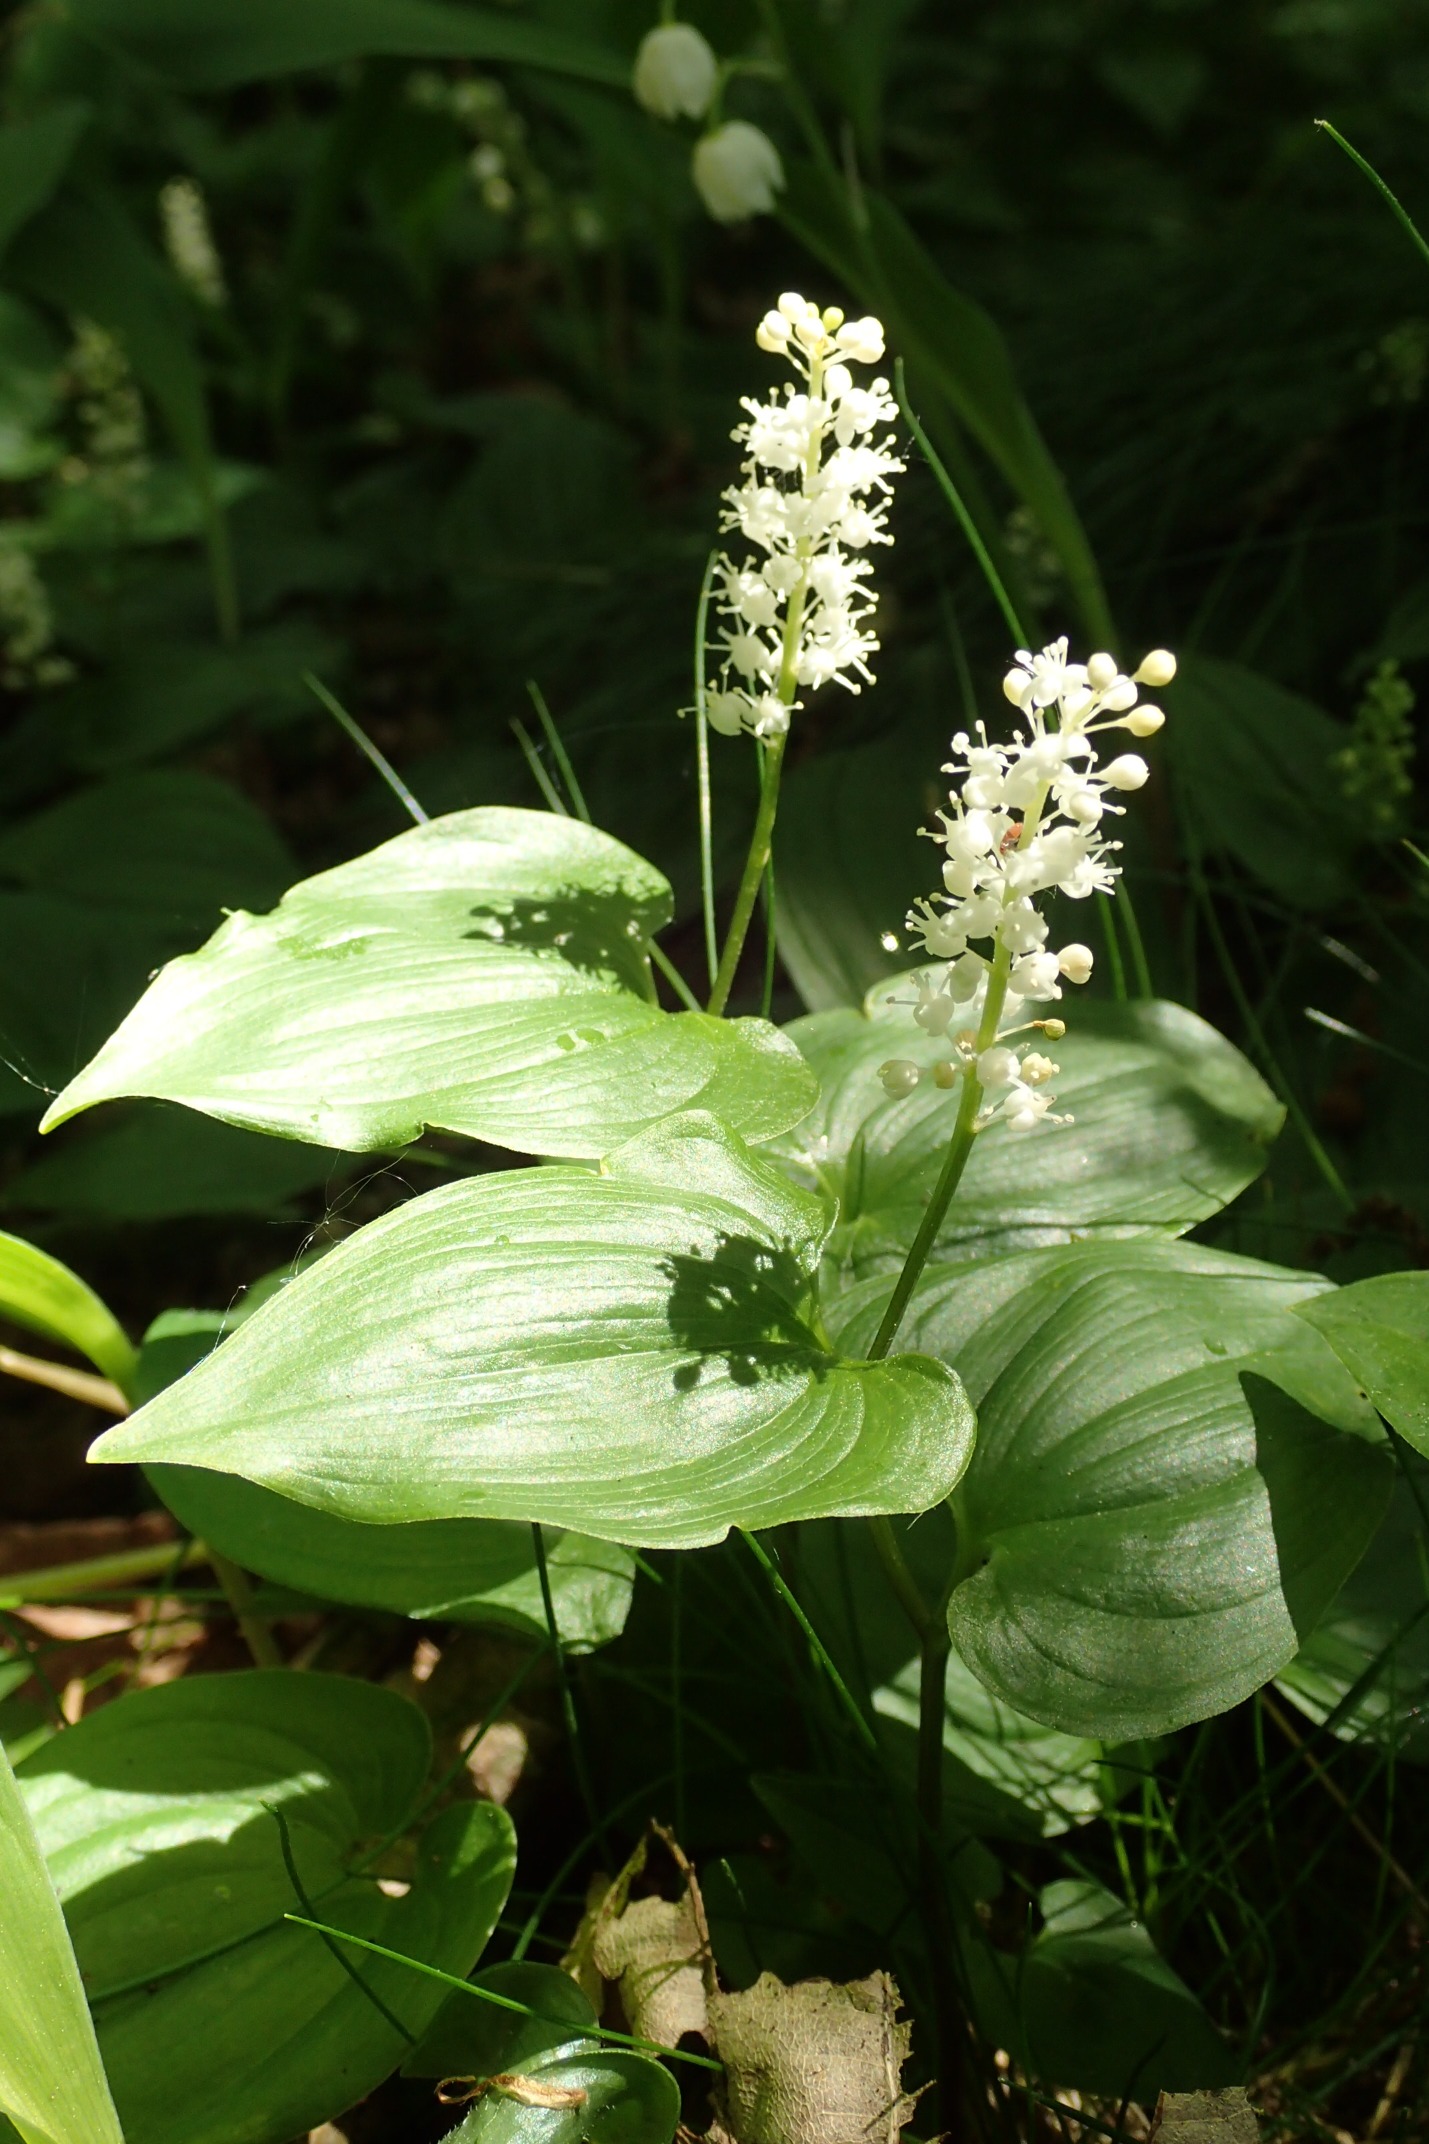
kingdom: Plantae
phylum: Tracheophyta
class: Liliopsida
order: Asparagales
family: Asparagaceae
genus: Maianthemum
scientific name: Maianthemum bifolium
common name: Majblomst
